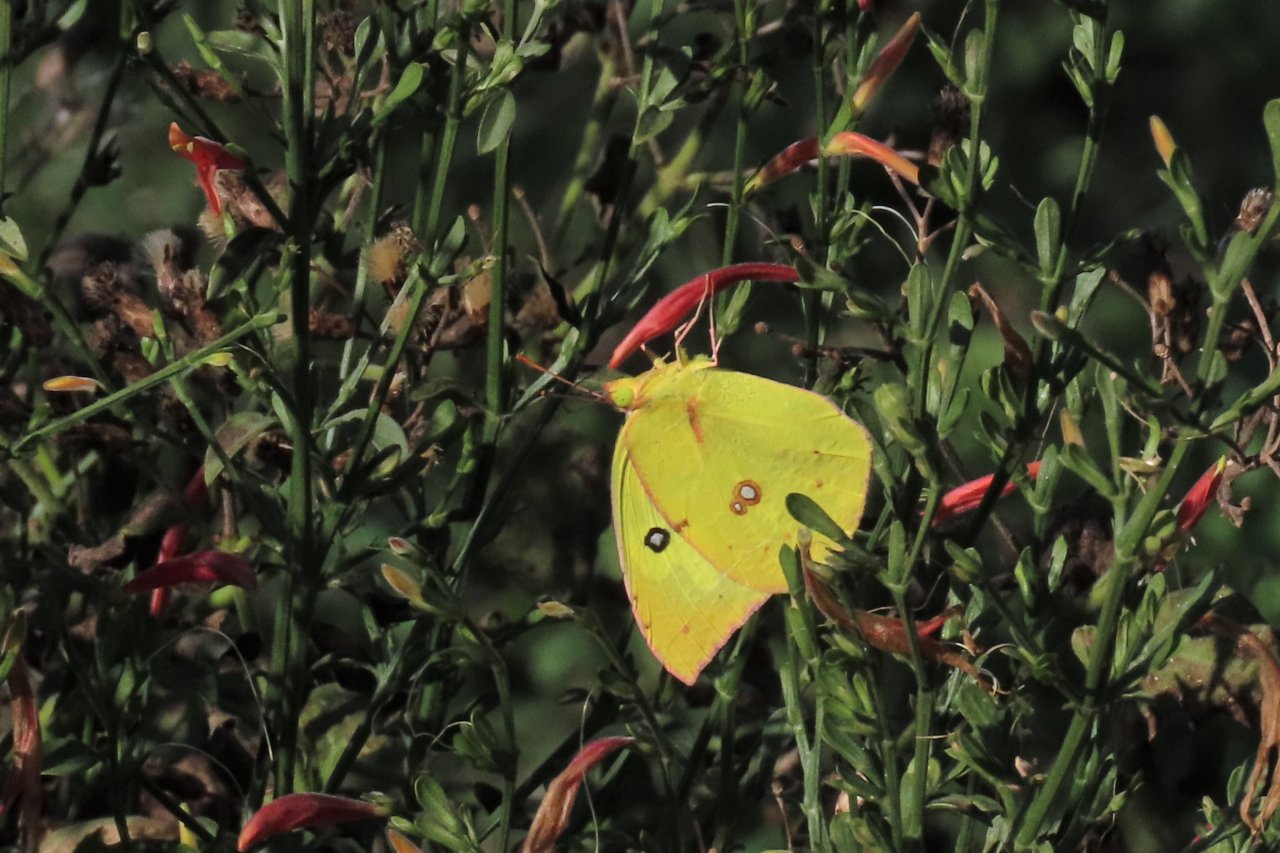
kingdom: Animalia
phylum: Arthropoda
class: Insecta
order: Lepidoptera
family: Pieridae
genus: Zerene
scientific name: Zerene cesonia
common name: Southern Dogface
